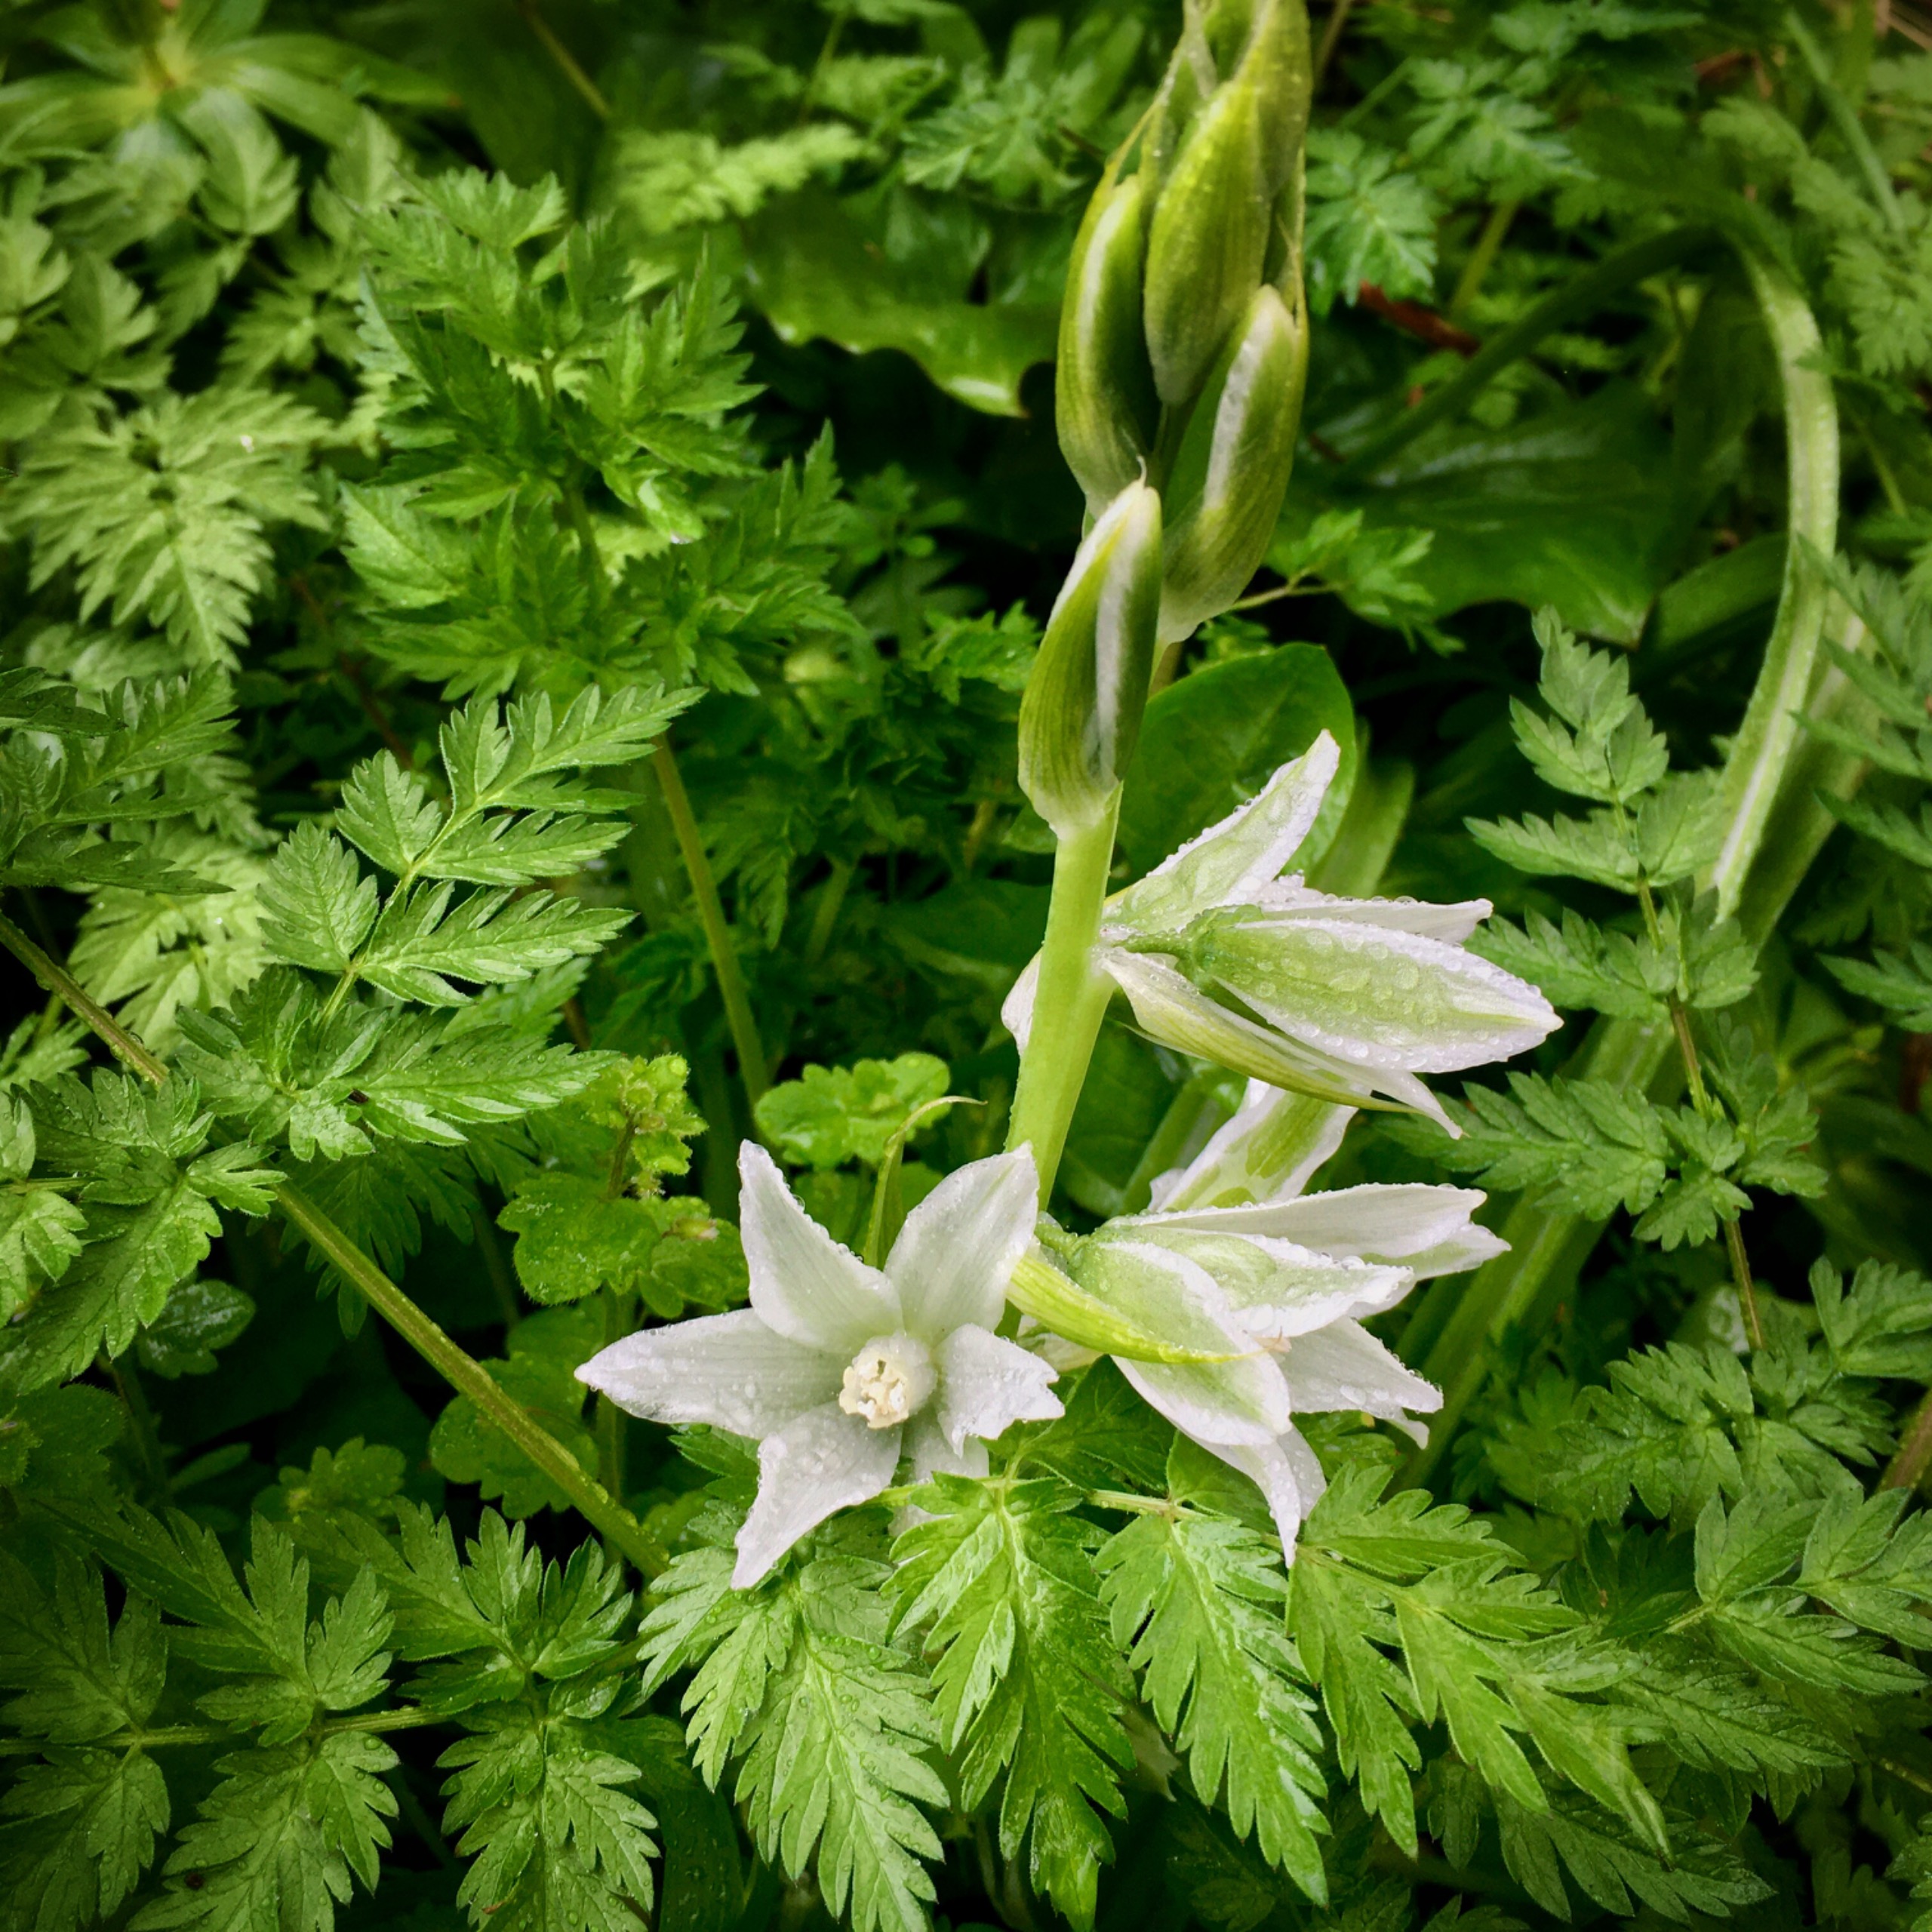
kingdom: Plantae
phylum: Tracheophyta
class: Liliopsida
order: Asparagales
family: Asparagaceae
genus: Ornithogalum
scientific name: Ornithogalum nutans
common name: Nikkende fuglemælk
